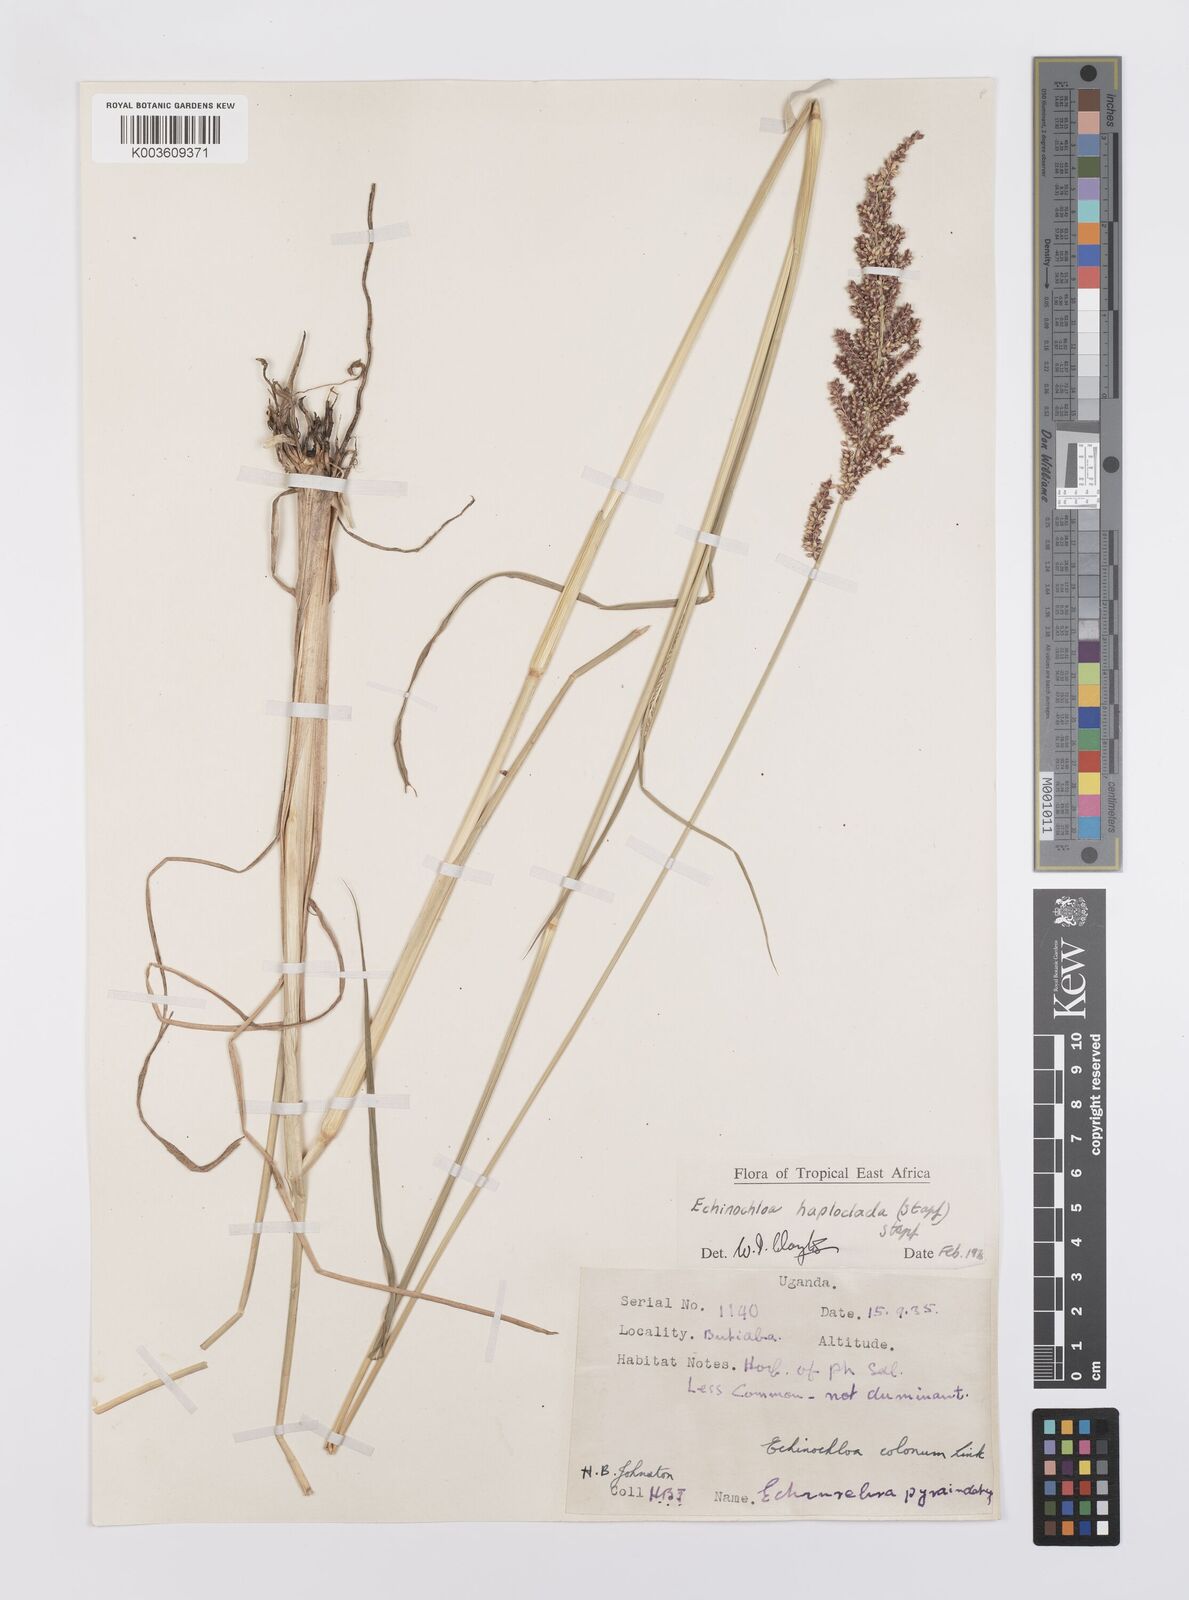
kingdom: Plantae
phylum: Tracheophyta
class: Liliopsida
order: Poales
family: Poaceae
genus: Echinochloa
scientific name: Echinochloa haploclada
